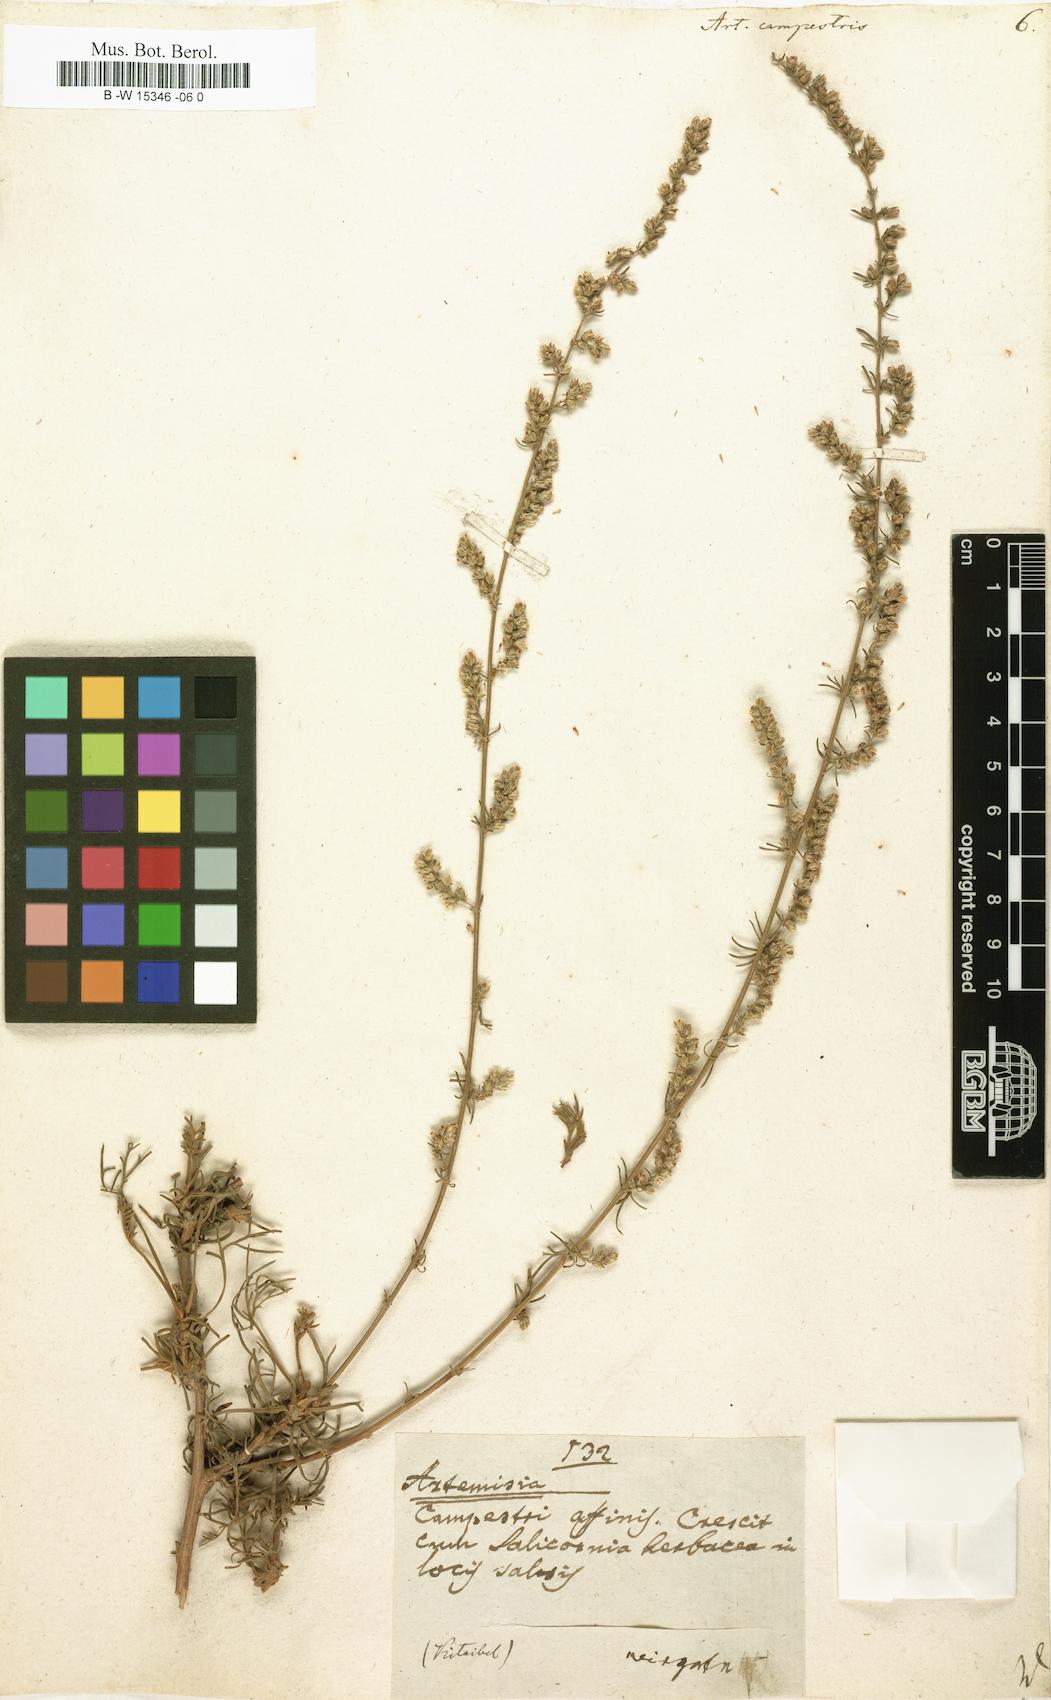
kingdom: Plantae
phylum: Tracheophyta
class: Magnoliopsida
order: Asterales
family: Asteraceae
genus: Artemisia
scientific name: Artemisia campestris
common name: Field wormwood
